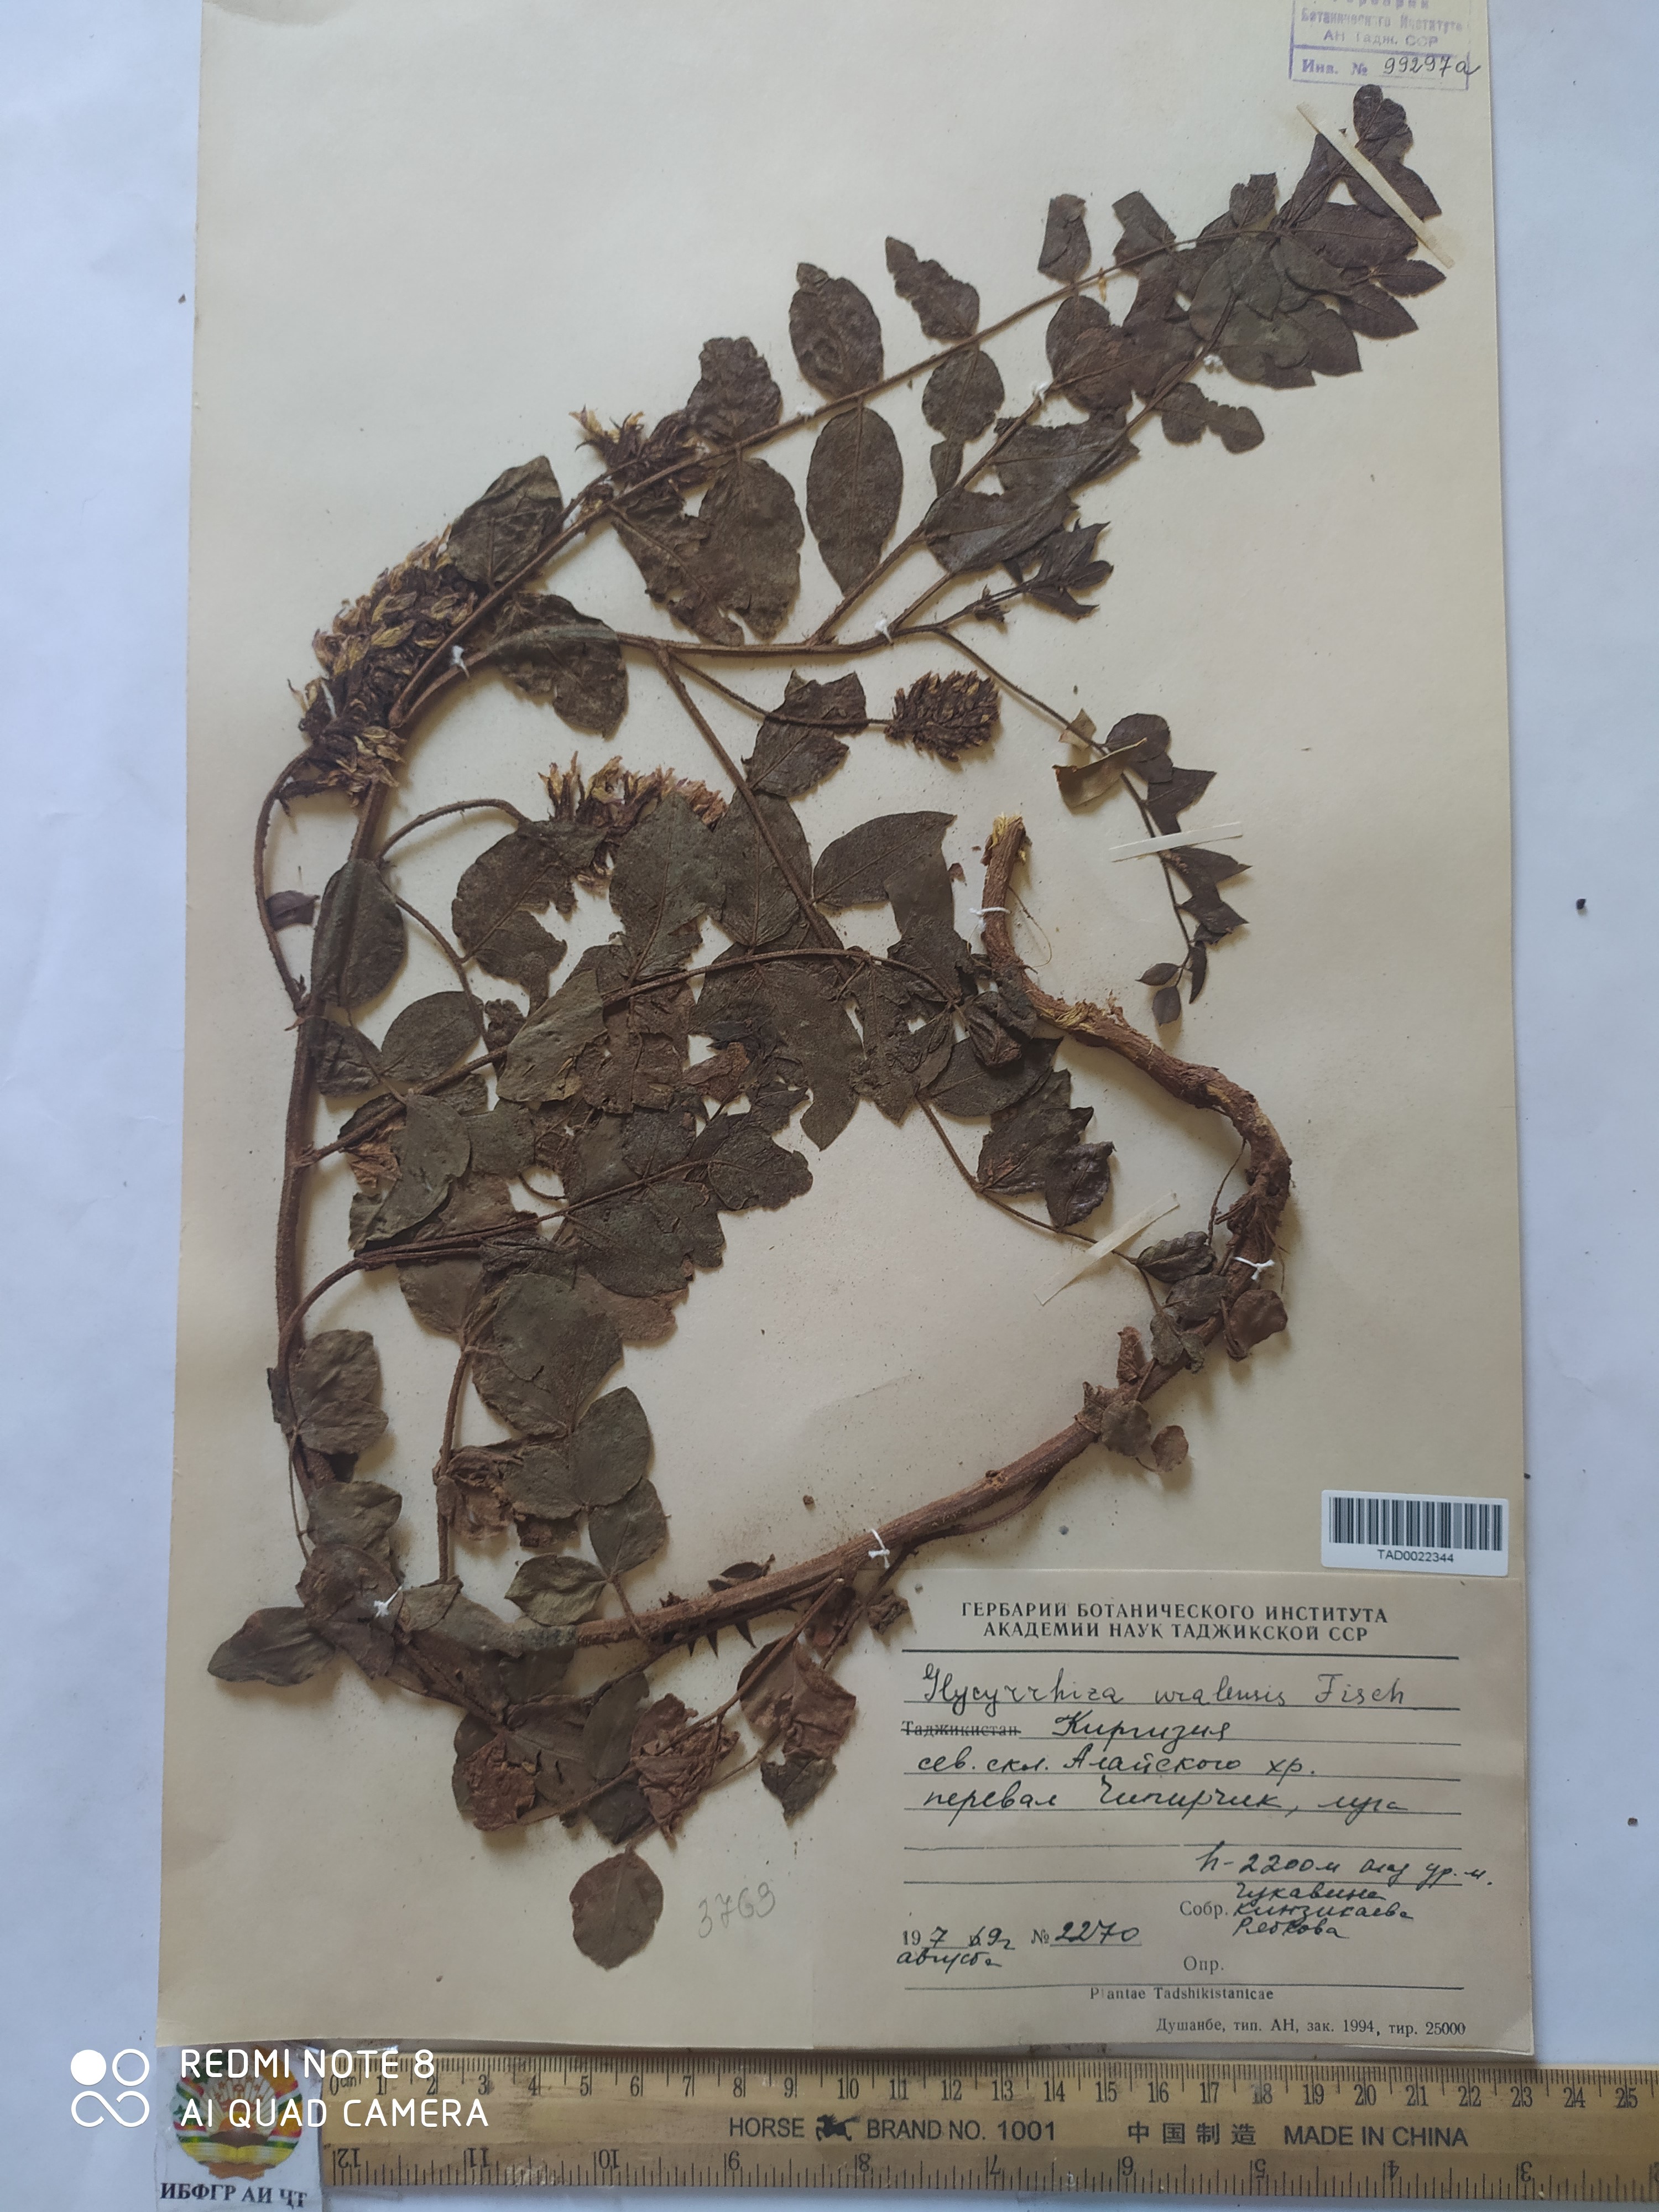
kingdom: Plantae
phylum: Tracheophyta
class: Magnoliopsida
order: Fabales
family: Fabaceae
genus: Glycyrrhiza
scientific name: Glycyrrhiza uralensis
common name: Chinese licorice
